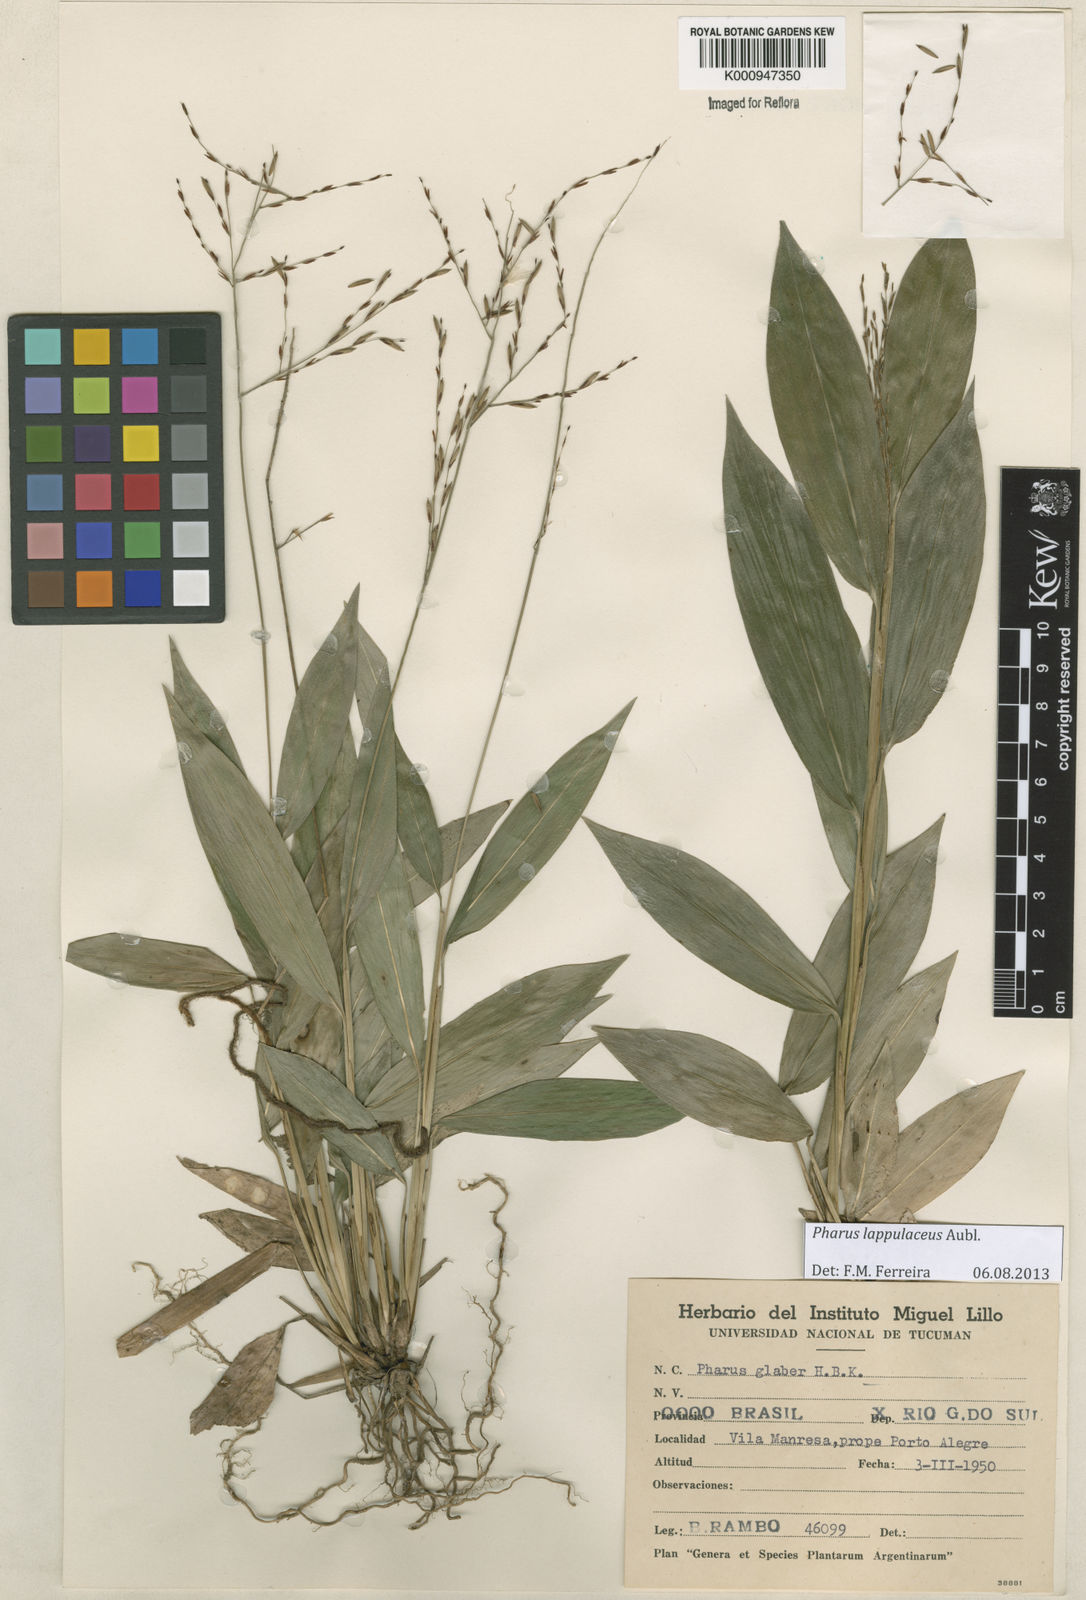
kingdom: Plantae
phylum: Tracheophyta
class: Liliopsida
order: Poales
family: Poaceae
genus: Pharus
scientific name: Pharus lappulaceus
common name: Creeping leafstalk grass
